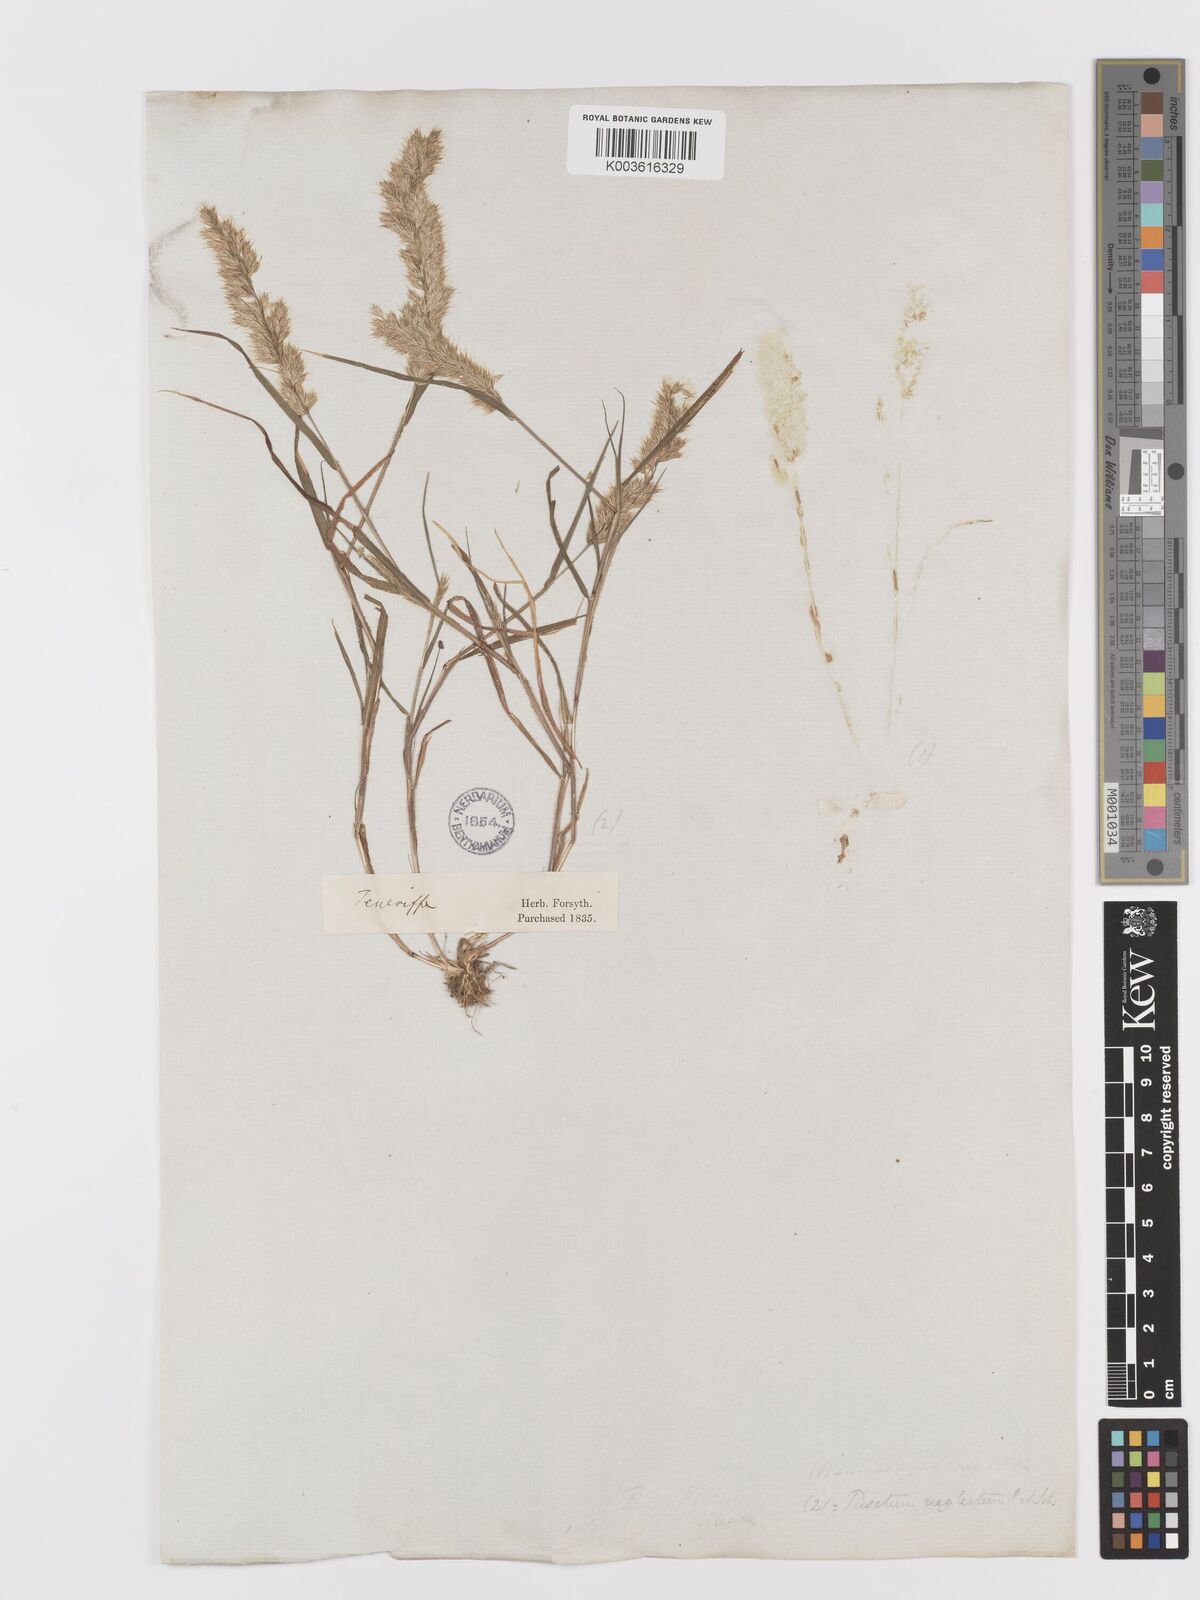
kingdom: Plantae
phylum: Tracheophyta
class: Liliopsida
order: Poales
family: Poaceae
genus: Trisetaria
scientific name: Trisetaria panicea
